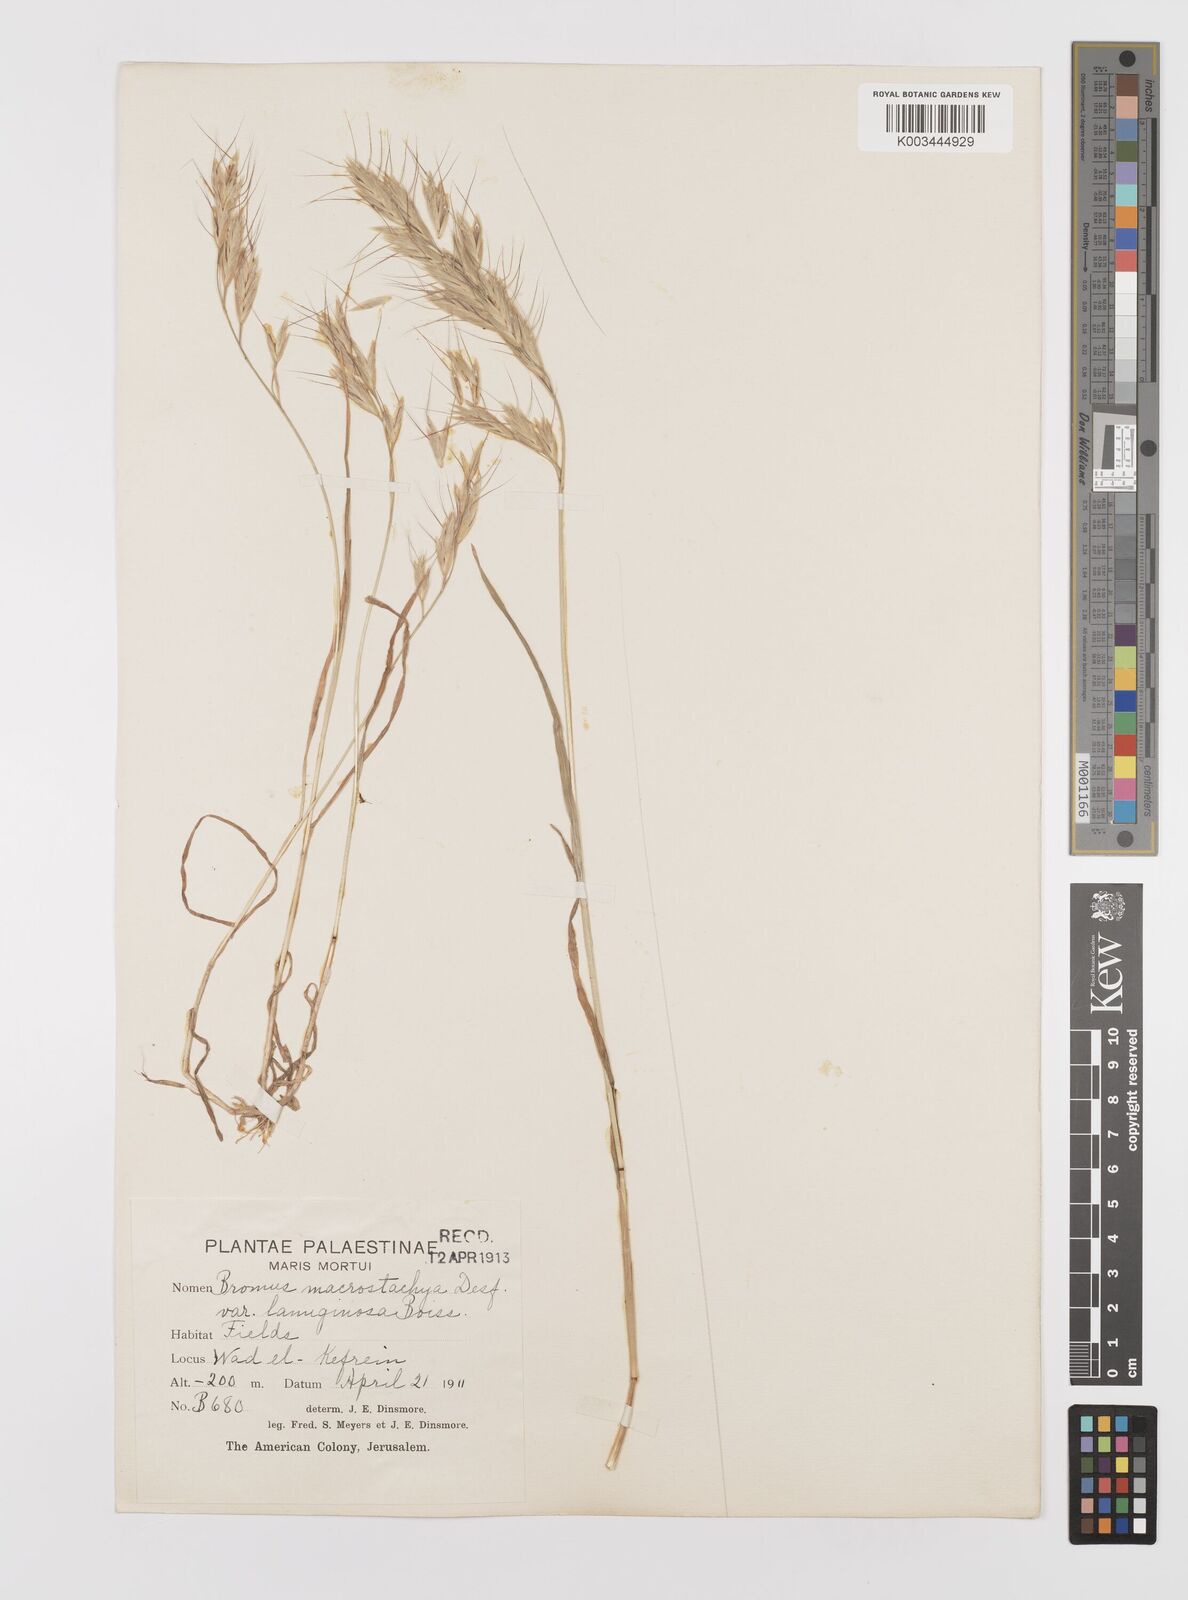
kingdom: Plantae
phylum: Tracheophyta
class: Liliopsida
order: Poales
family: Poaceae
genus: Bromus
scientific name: Bromus lanceolatus
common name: Mediterranean brome
